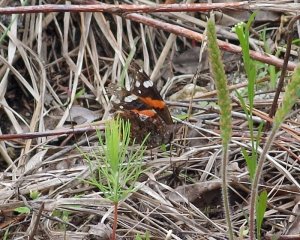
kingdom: Animalia
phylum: Arthropoda
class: Insecta
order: Lepidoptera
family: Nymphalidae
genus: Vanessa
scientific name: Vanessa atalanta
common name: Red Admiral
